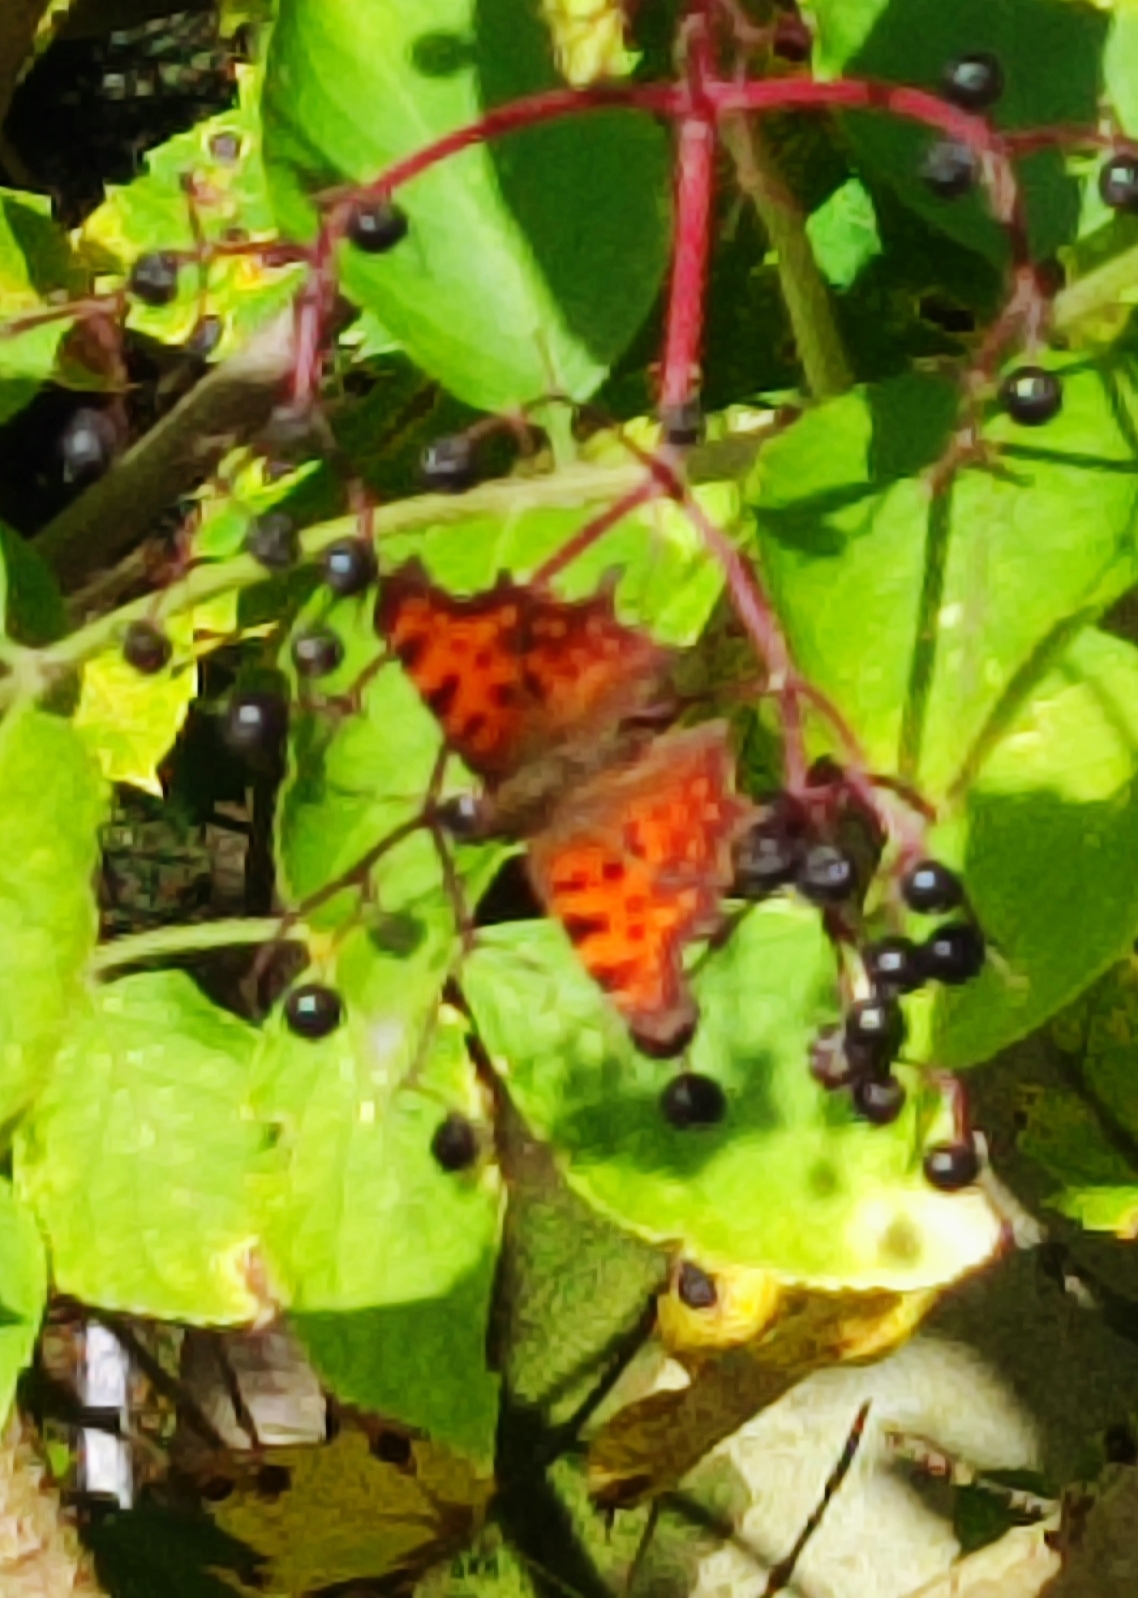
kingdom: Animalia
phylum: Arthropoda
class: Insecta
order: Lepidoptera
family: Nymphalidae
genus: Polygonia
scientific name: Polygonia c-album
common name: Det hvide C
